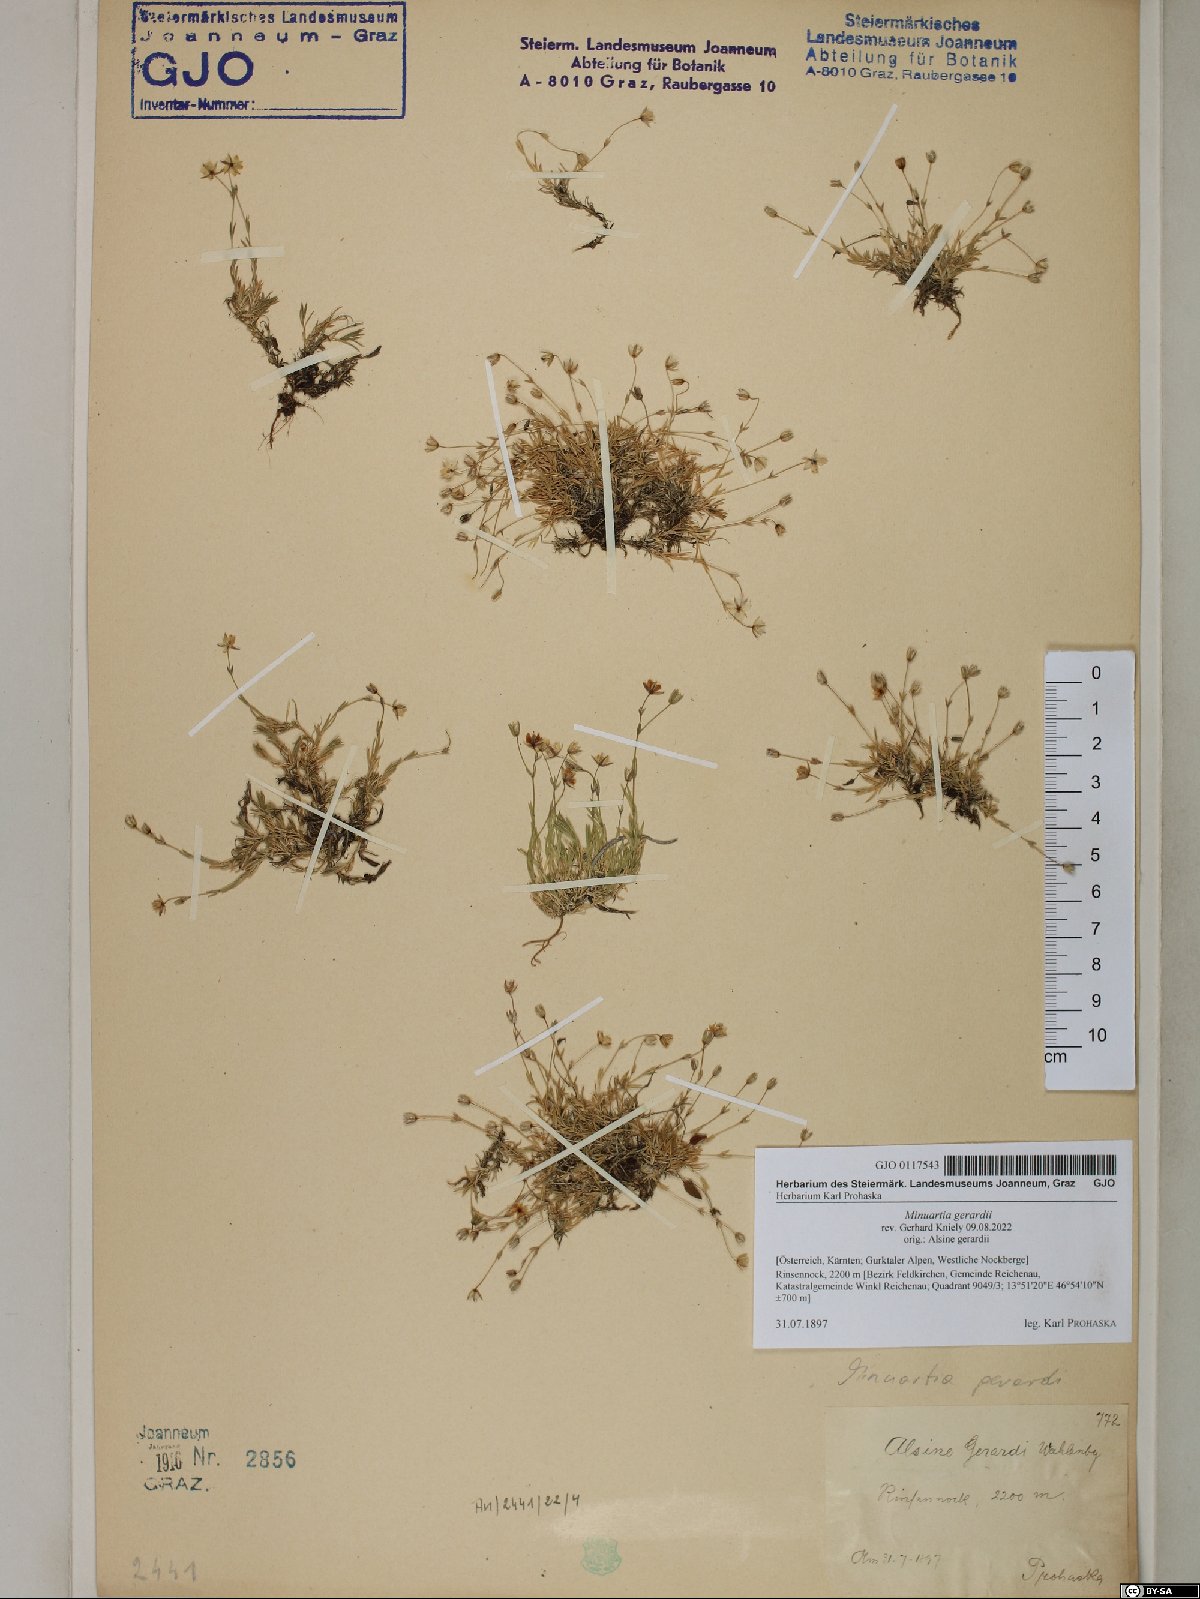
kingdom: Plantae
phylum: Tracheophyta
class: Magnoliopsida
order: Caryophyllales
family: Caryophyllaceae
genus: Sabulina
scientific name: Sabulina verna
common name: Spring sandwort
